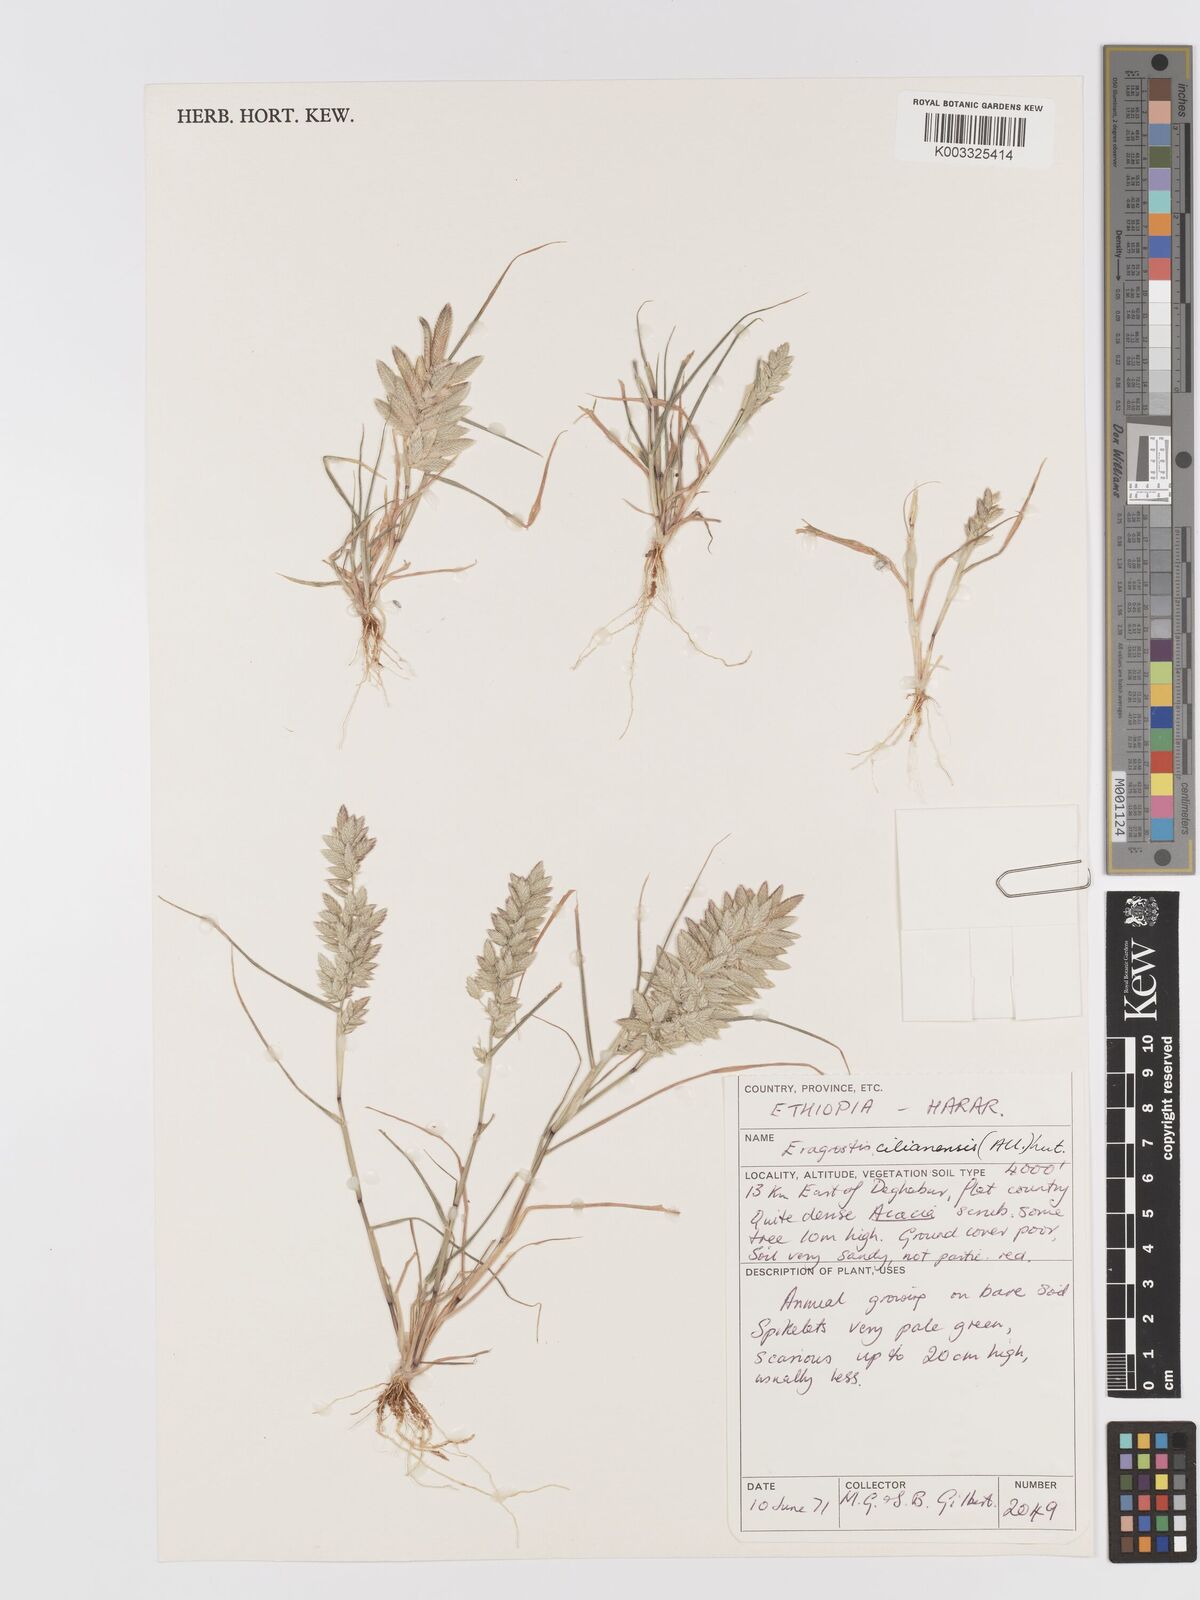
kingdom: Plantae
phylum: Tracheophyta
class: Liliopsida
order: Poales
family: Poaceae
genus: Eragrostis
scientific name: Eragrostis cilianensis
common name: Stinkgrass
